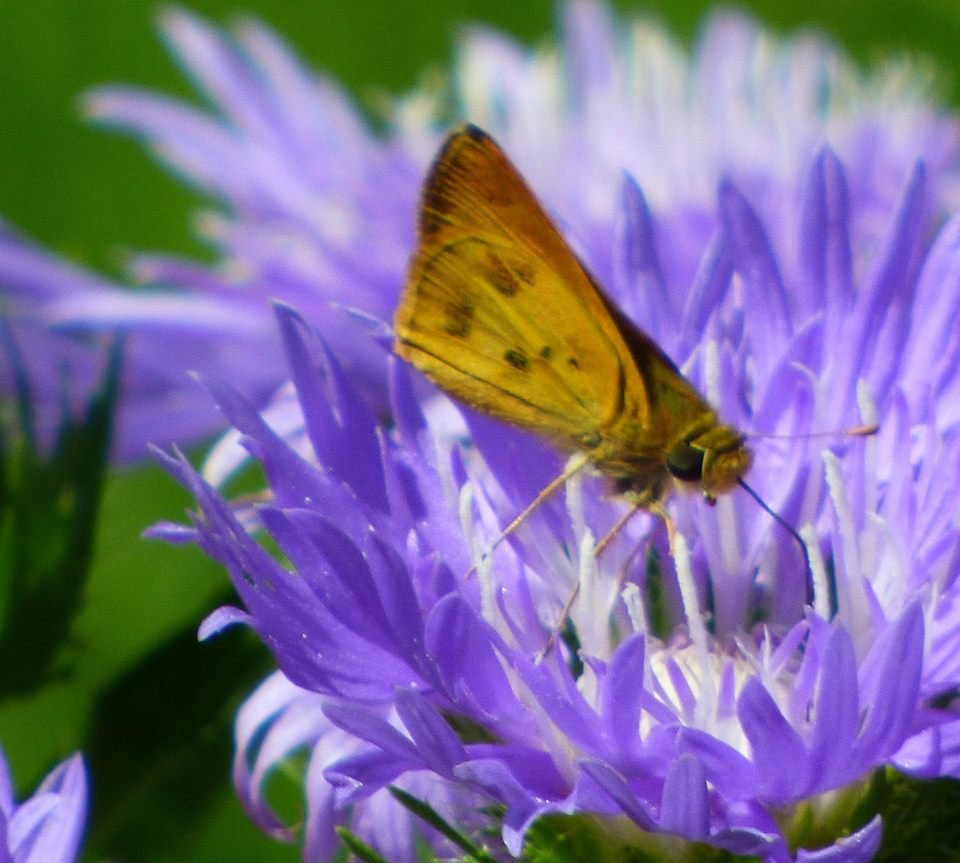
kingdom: Animalia
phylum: Arthropoda
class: Insecta
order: Lepidoptera
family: Hesperiidae
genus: Polites
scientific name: Polites vibex
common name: Whirlabout
